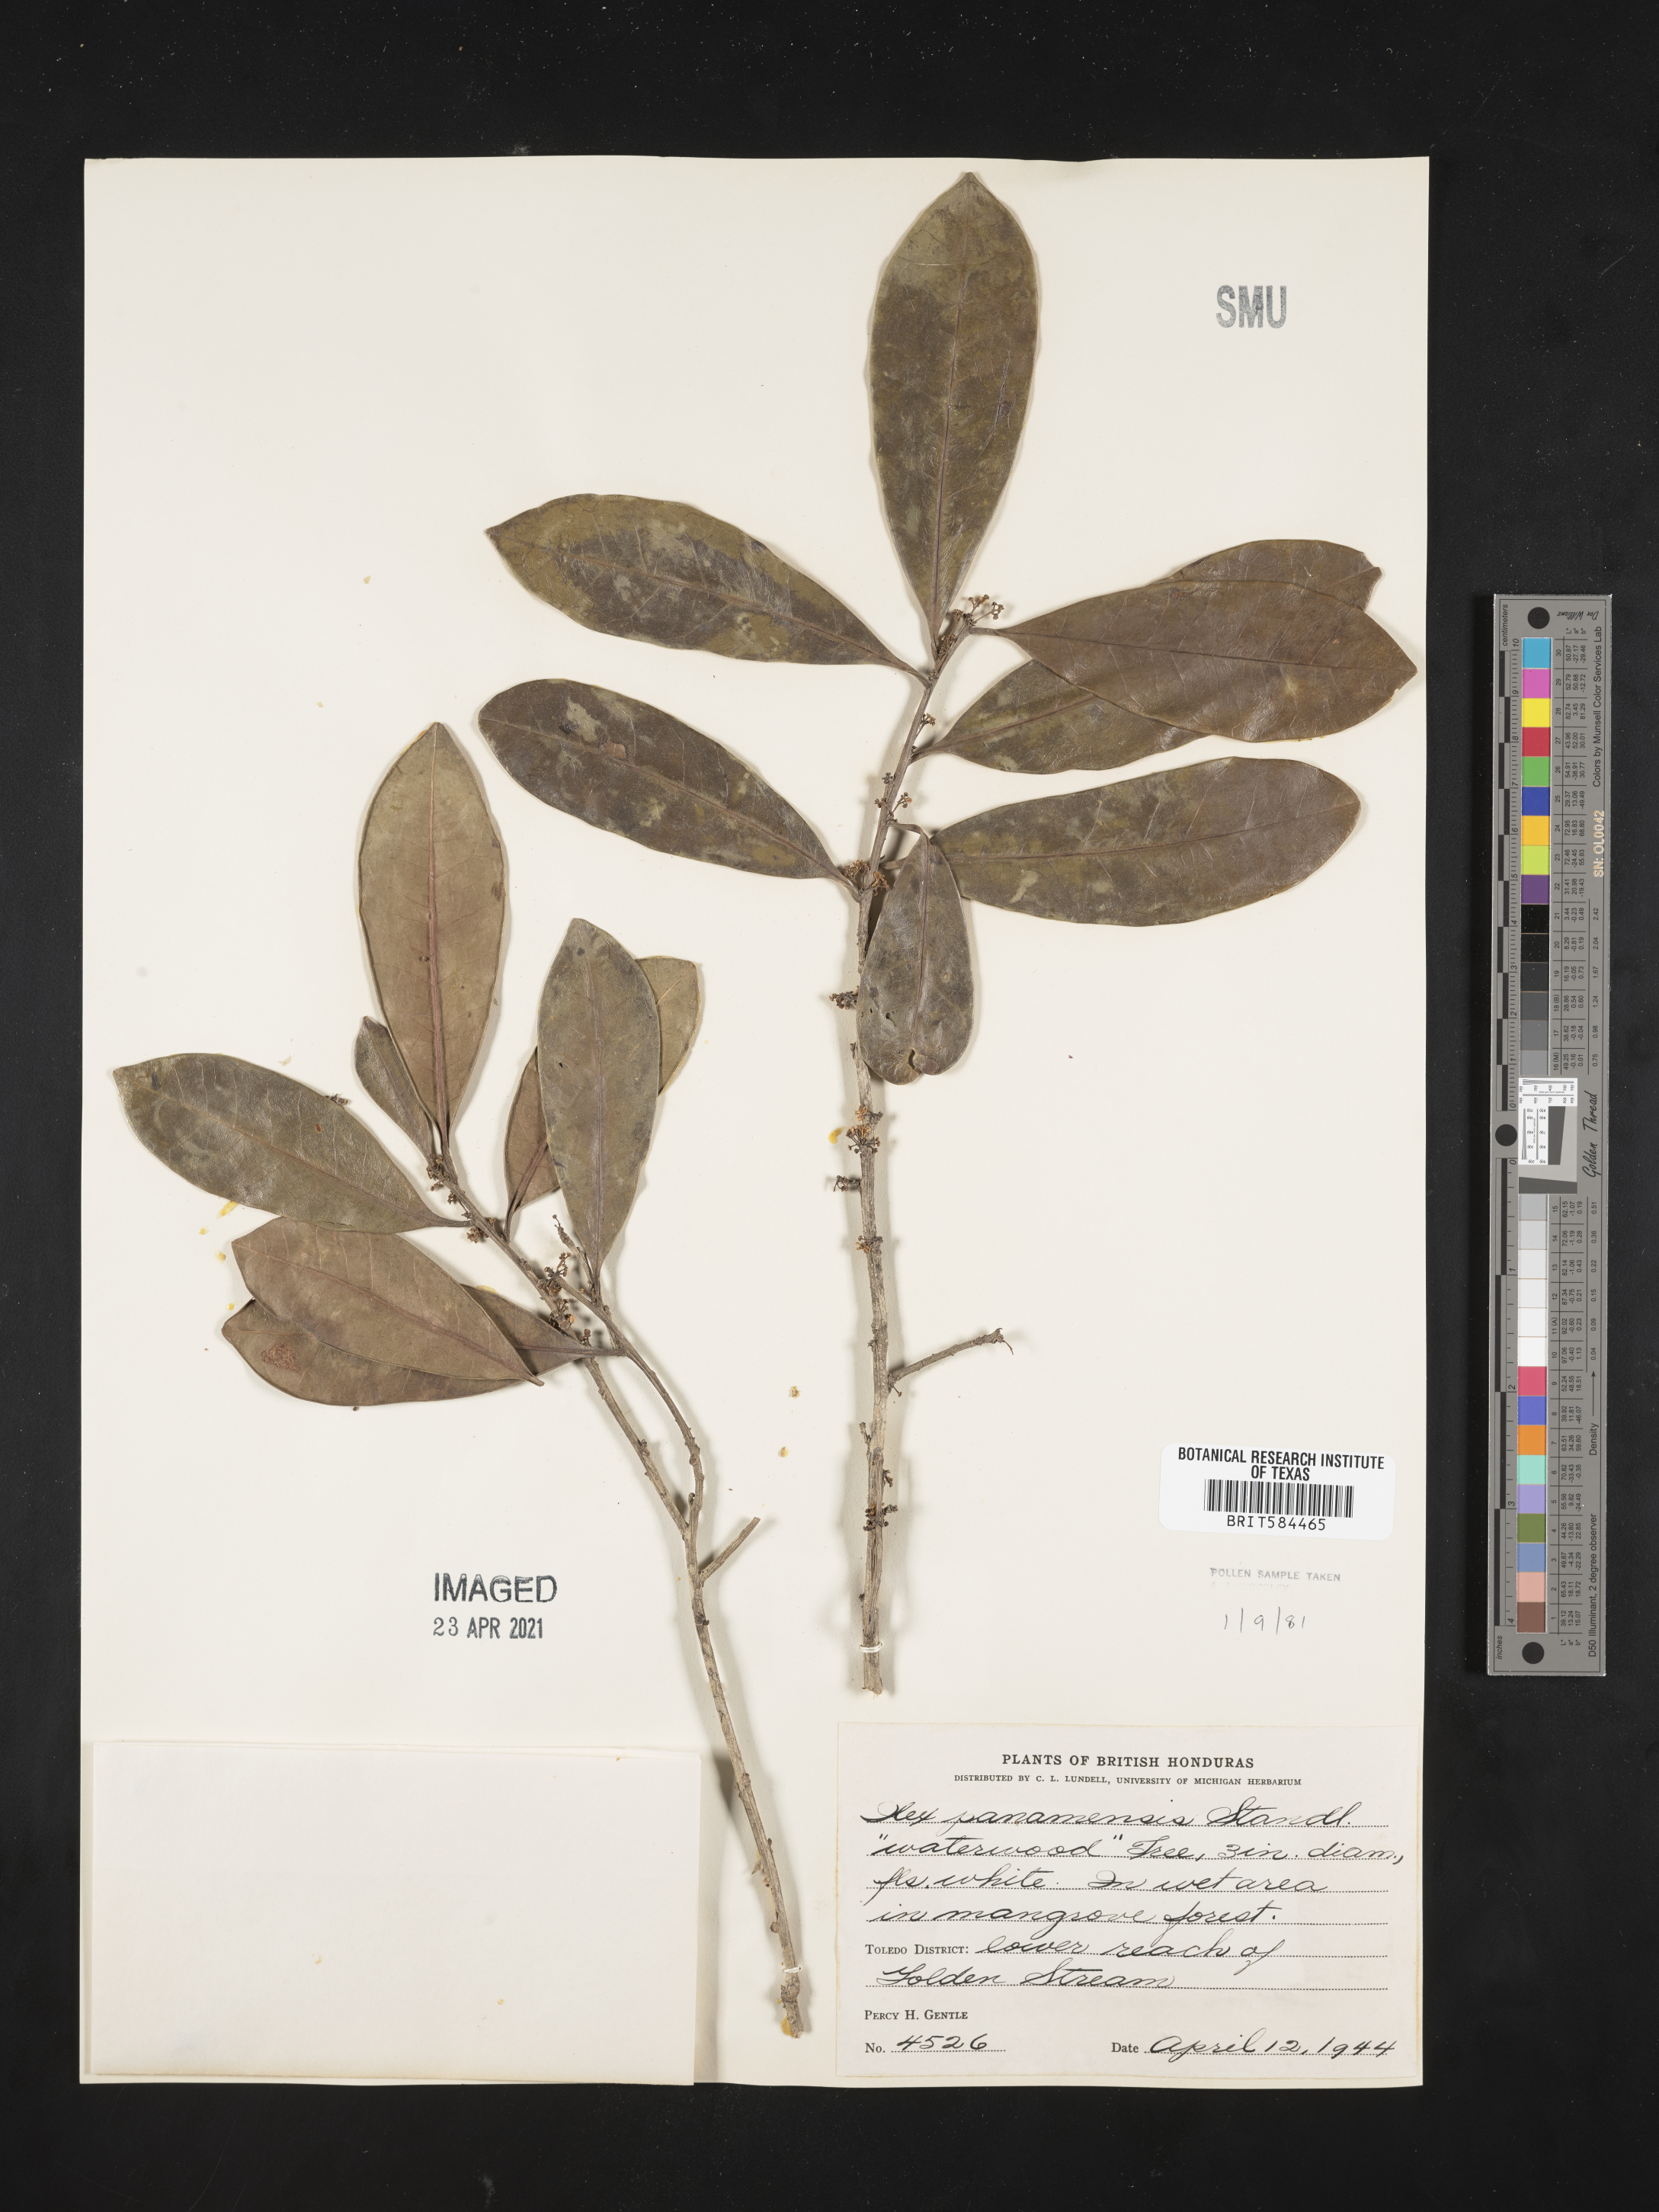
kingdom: Plantae
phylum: Tracheophyta
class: Magnoliopsida
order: Aquifoliales
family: Aquifoliaceae
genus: Ilex
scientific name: Ilex guianensis
